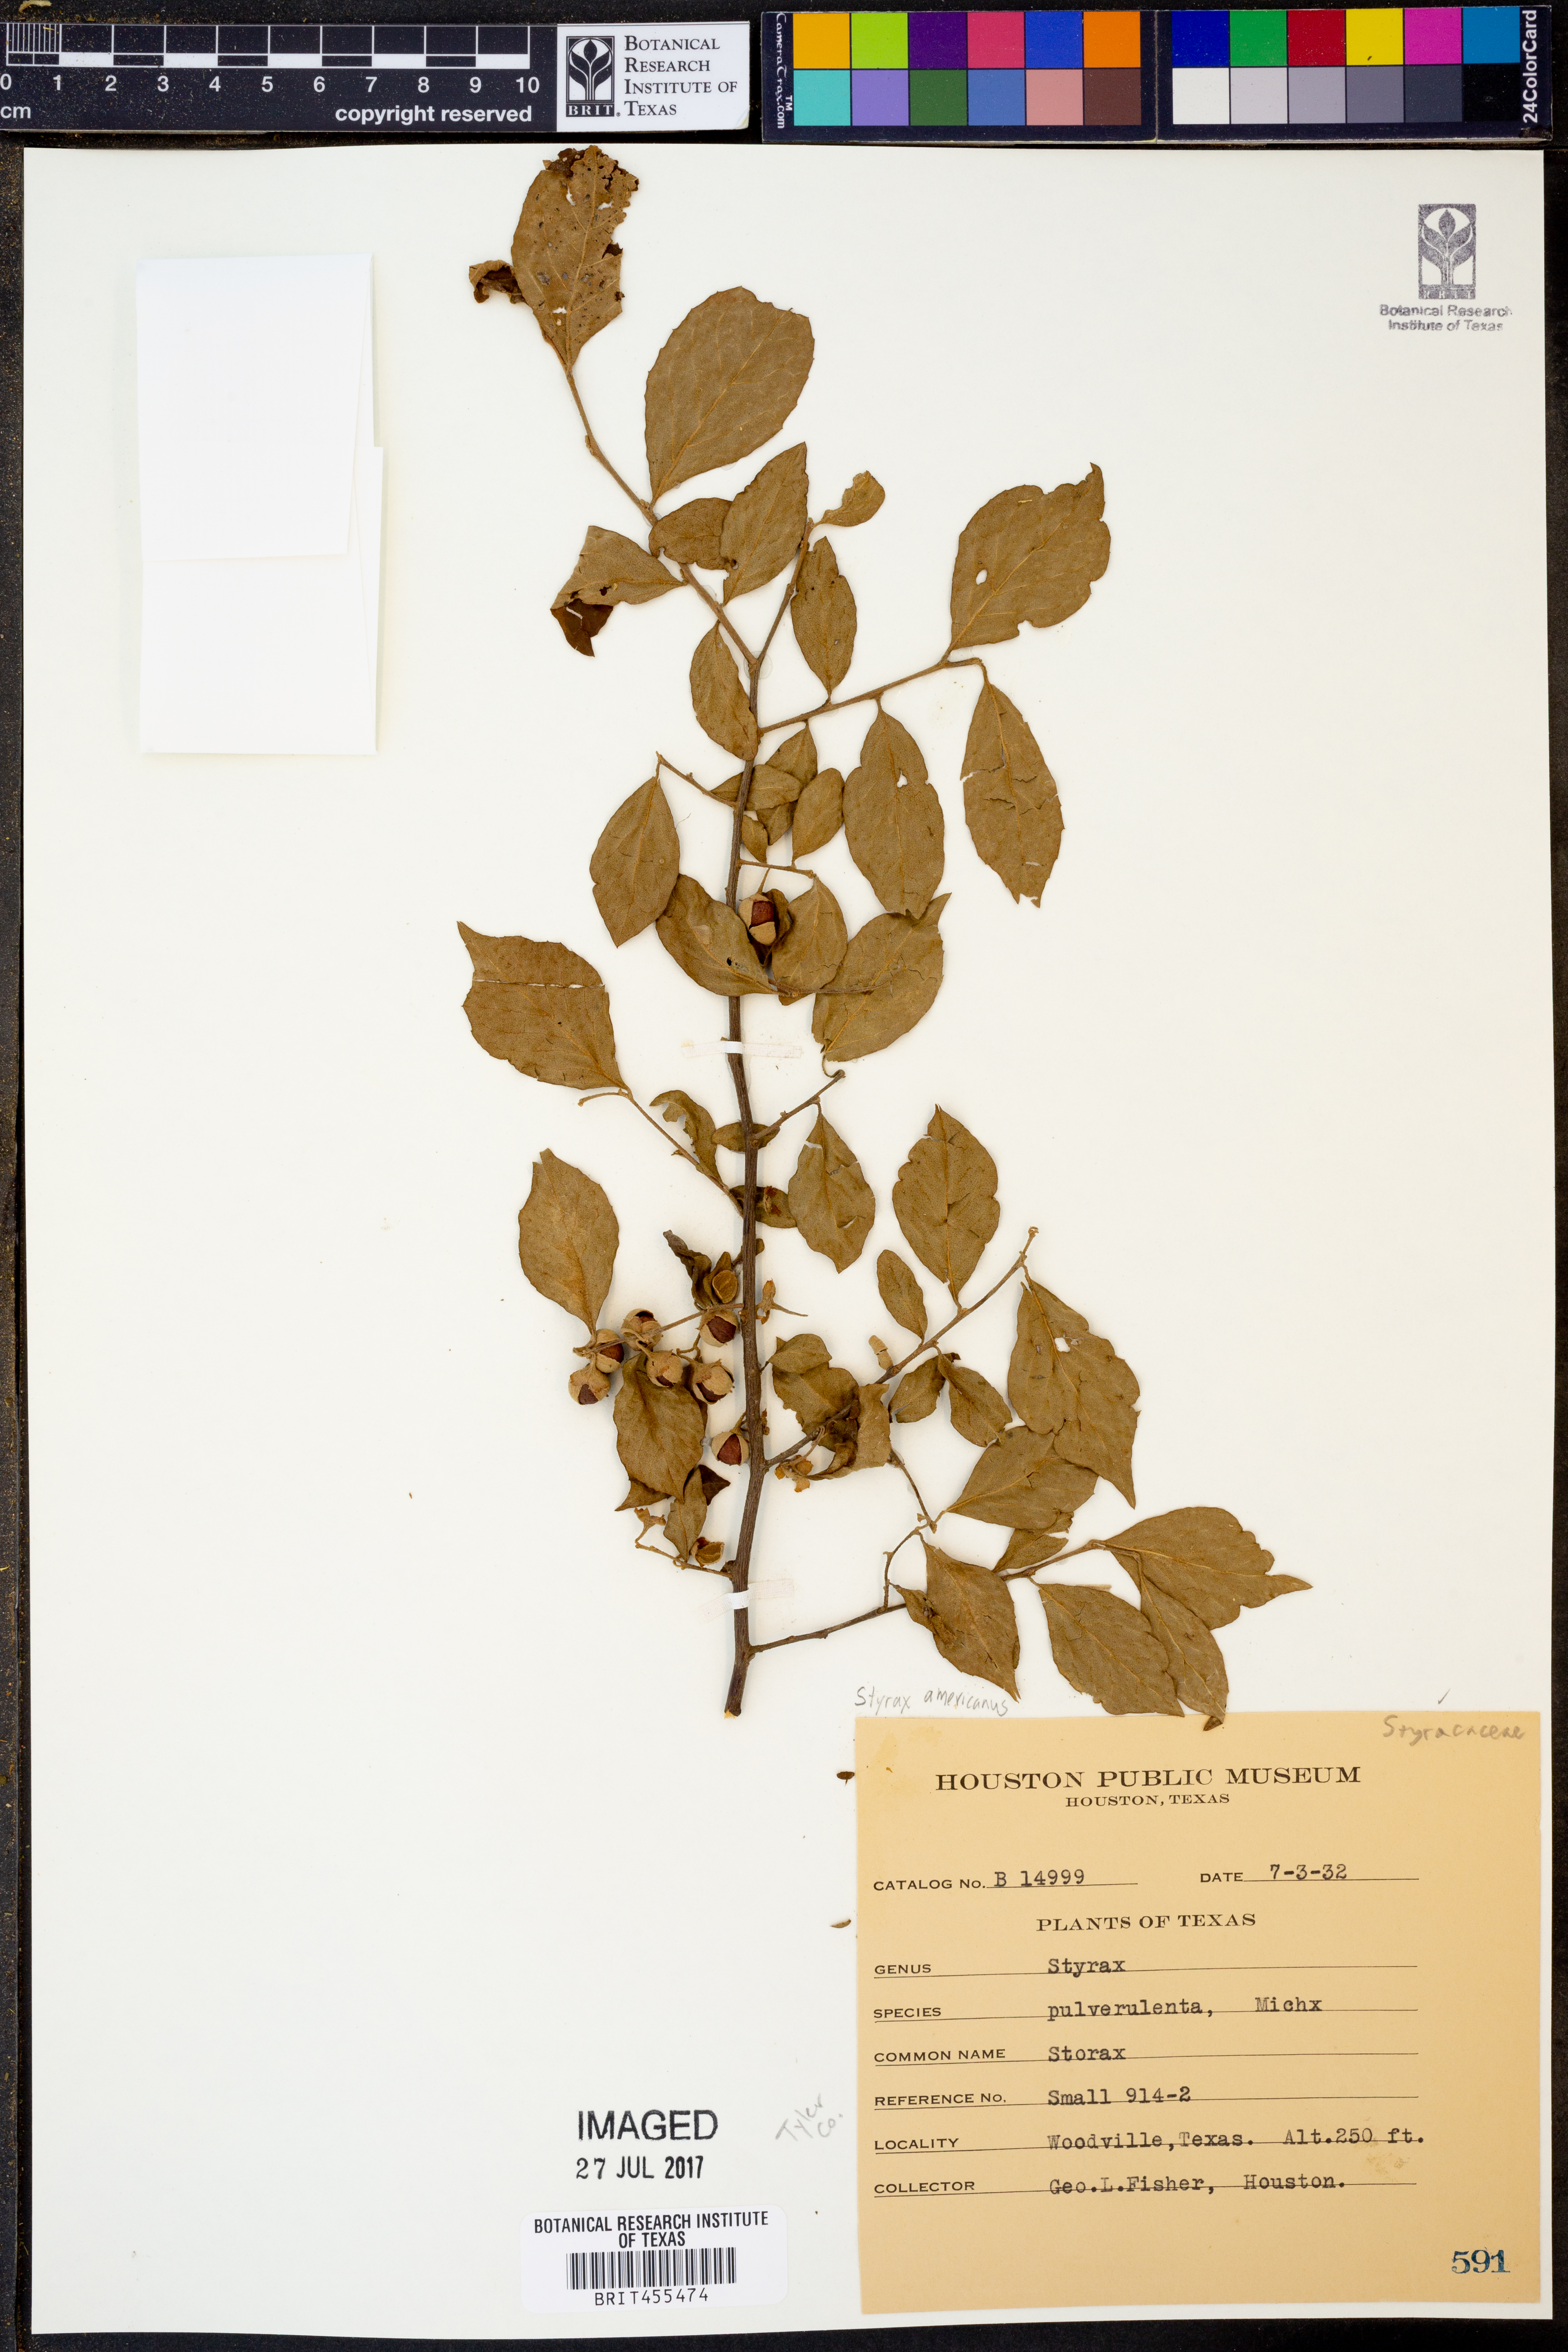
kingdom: Plantae
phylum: Tracheophyta
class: Magnoliopsida
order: Ericales
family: Styracaceae
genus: Styrax
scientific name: Styrax americanus
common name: American snowbell
